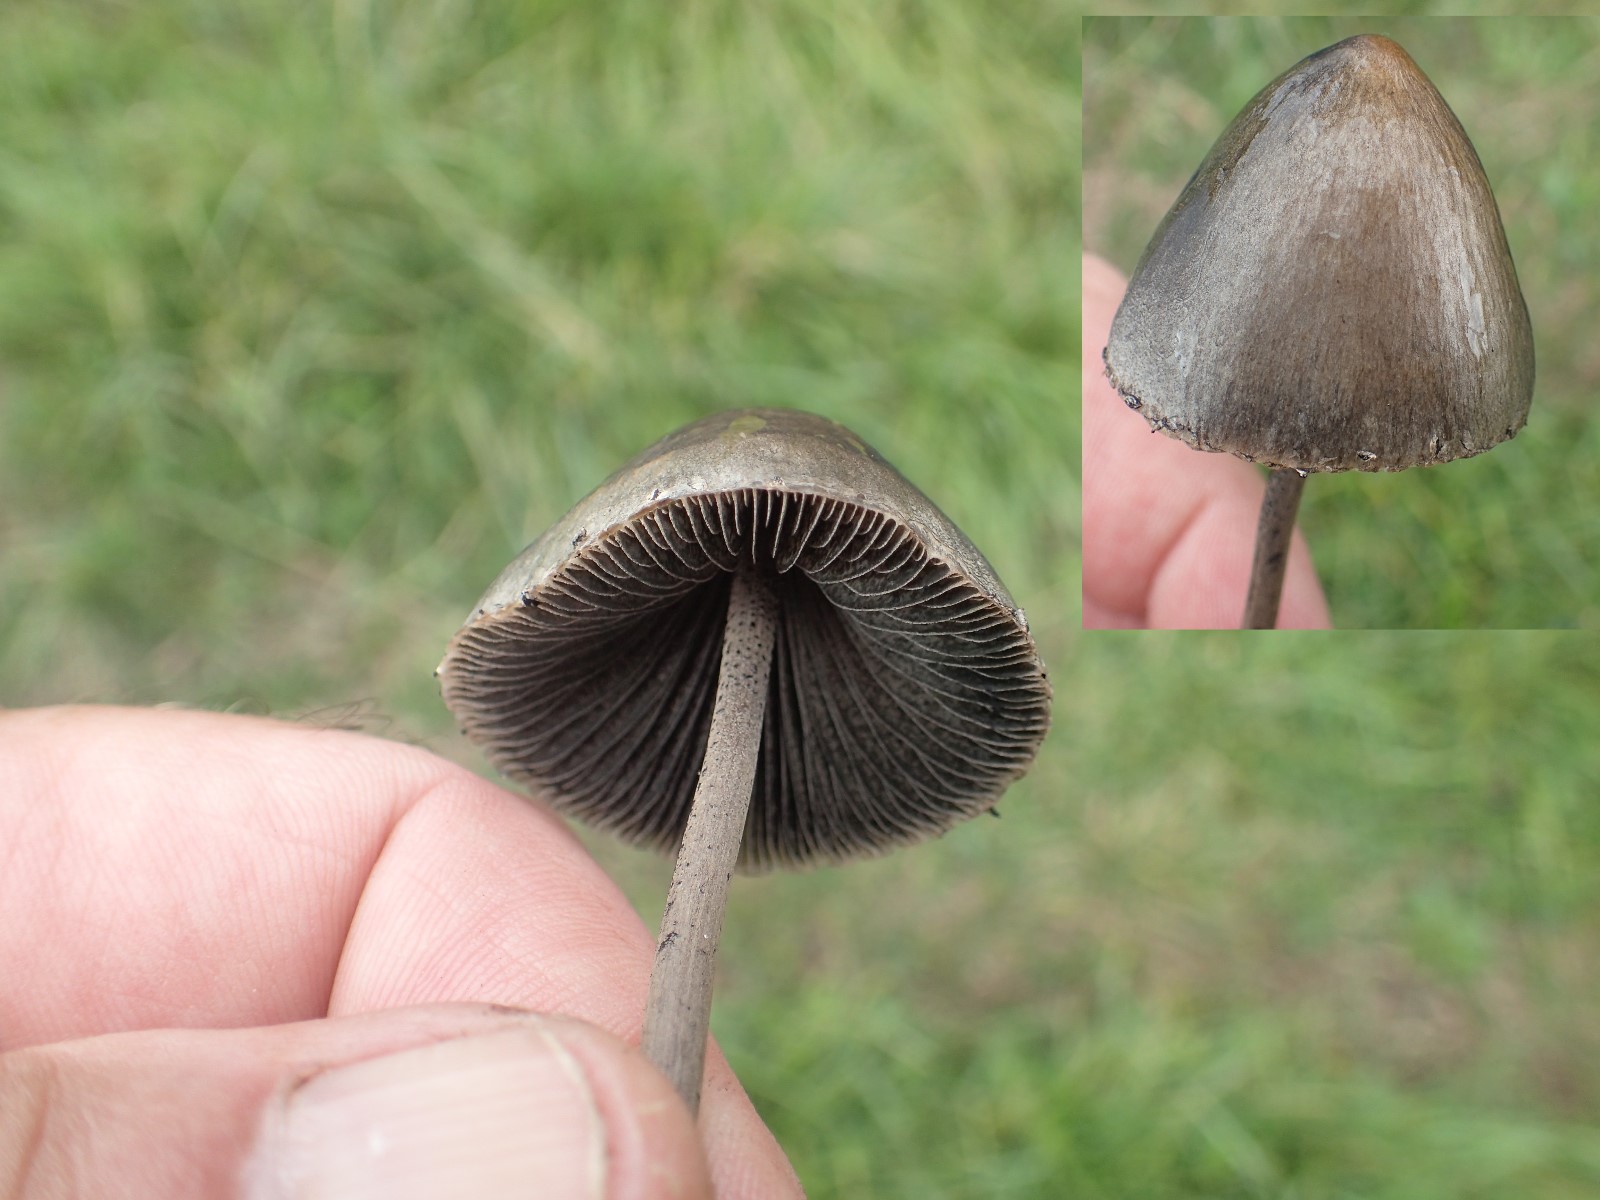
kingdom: Fungi
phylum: Basidiomycota
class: Agaricomycetes
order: Agaricales
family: Bolbitiaceae
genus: Panaeolus
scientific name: Panaeolus papilionaceus
